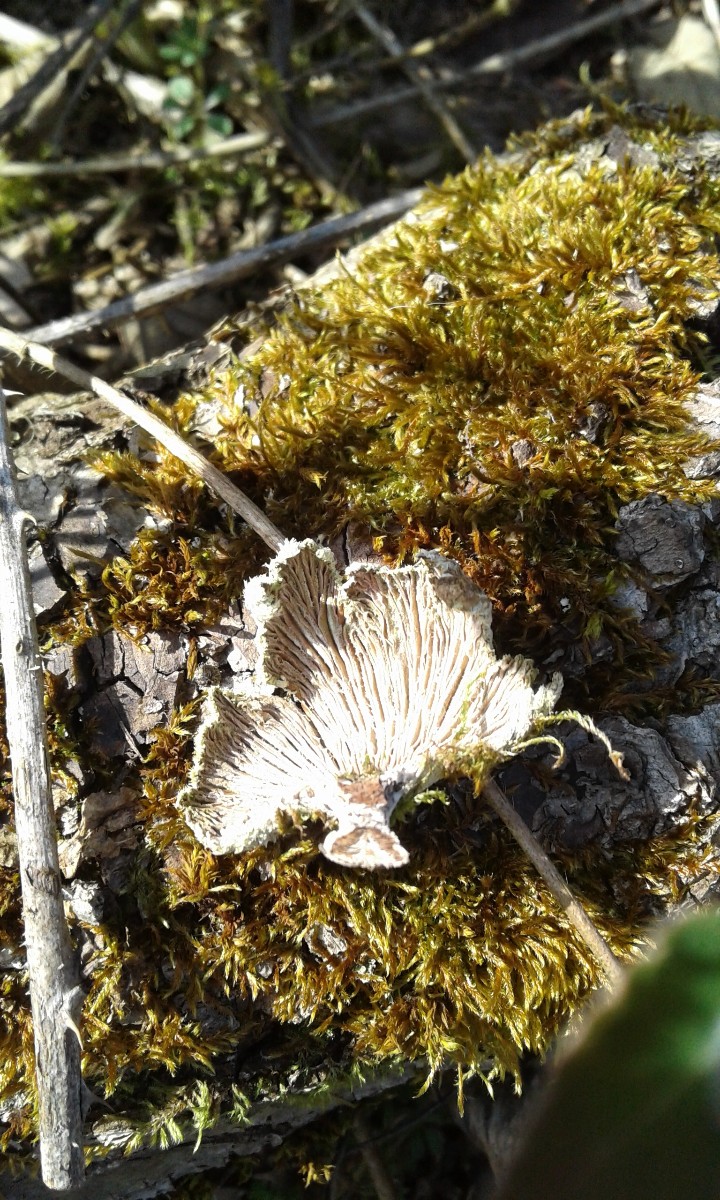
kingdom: Fungi
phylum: Basidiomycota
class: Agaricomycetes
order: Agaricales
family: Schizophyllaceae
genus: Schizophyllum
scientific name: Schizophyllum commune
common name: kløvblad
